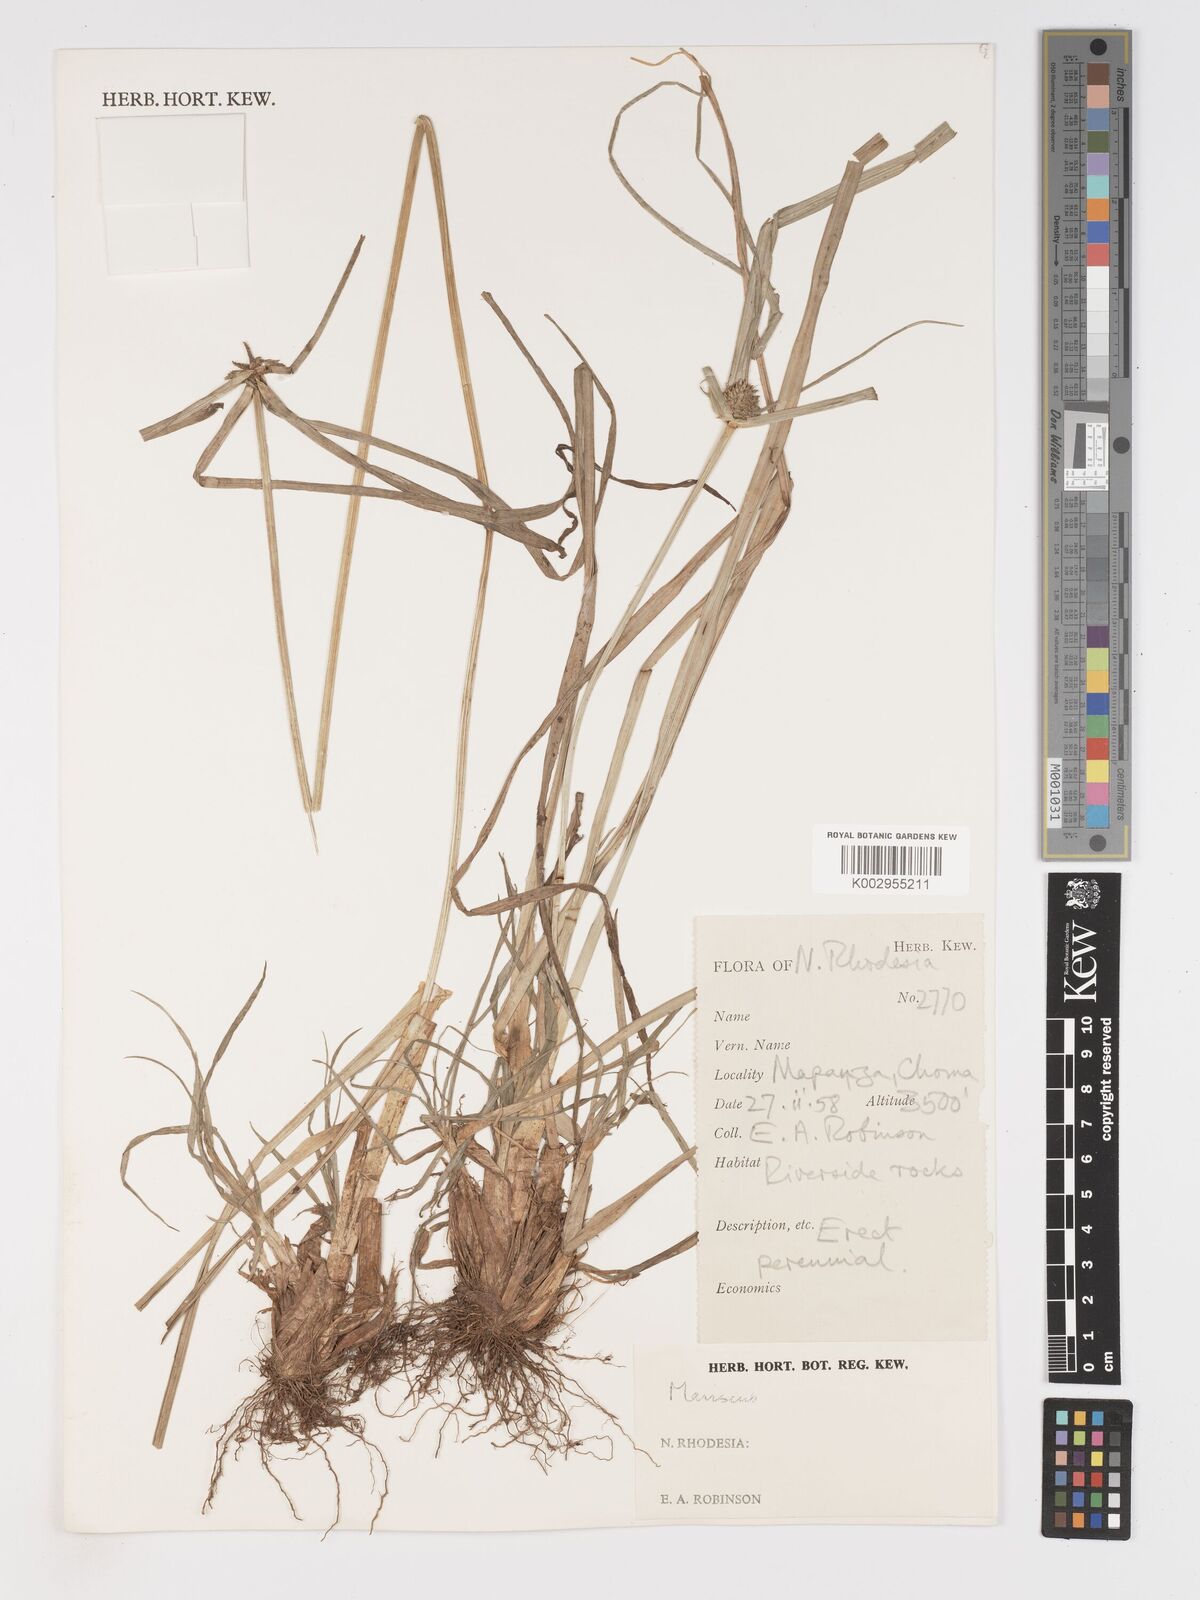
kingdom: Plantae
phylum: Tracheophyta
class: Liliopsida
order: Poales
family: Cyperaceae
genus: Cyperus
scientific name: Cyperus
